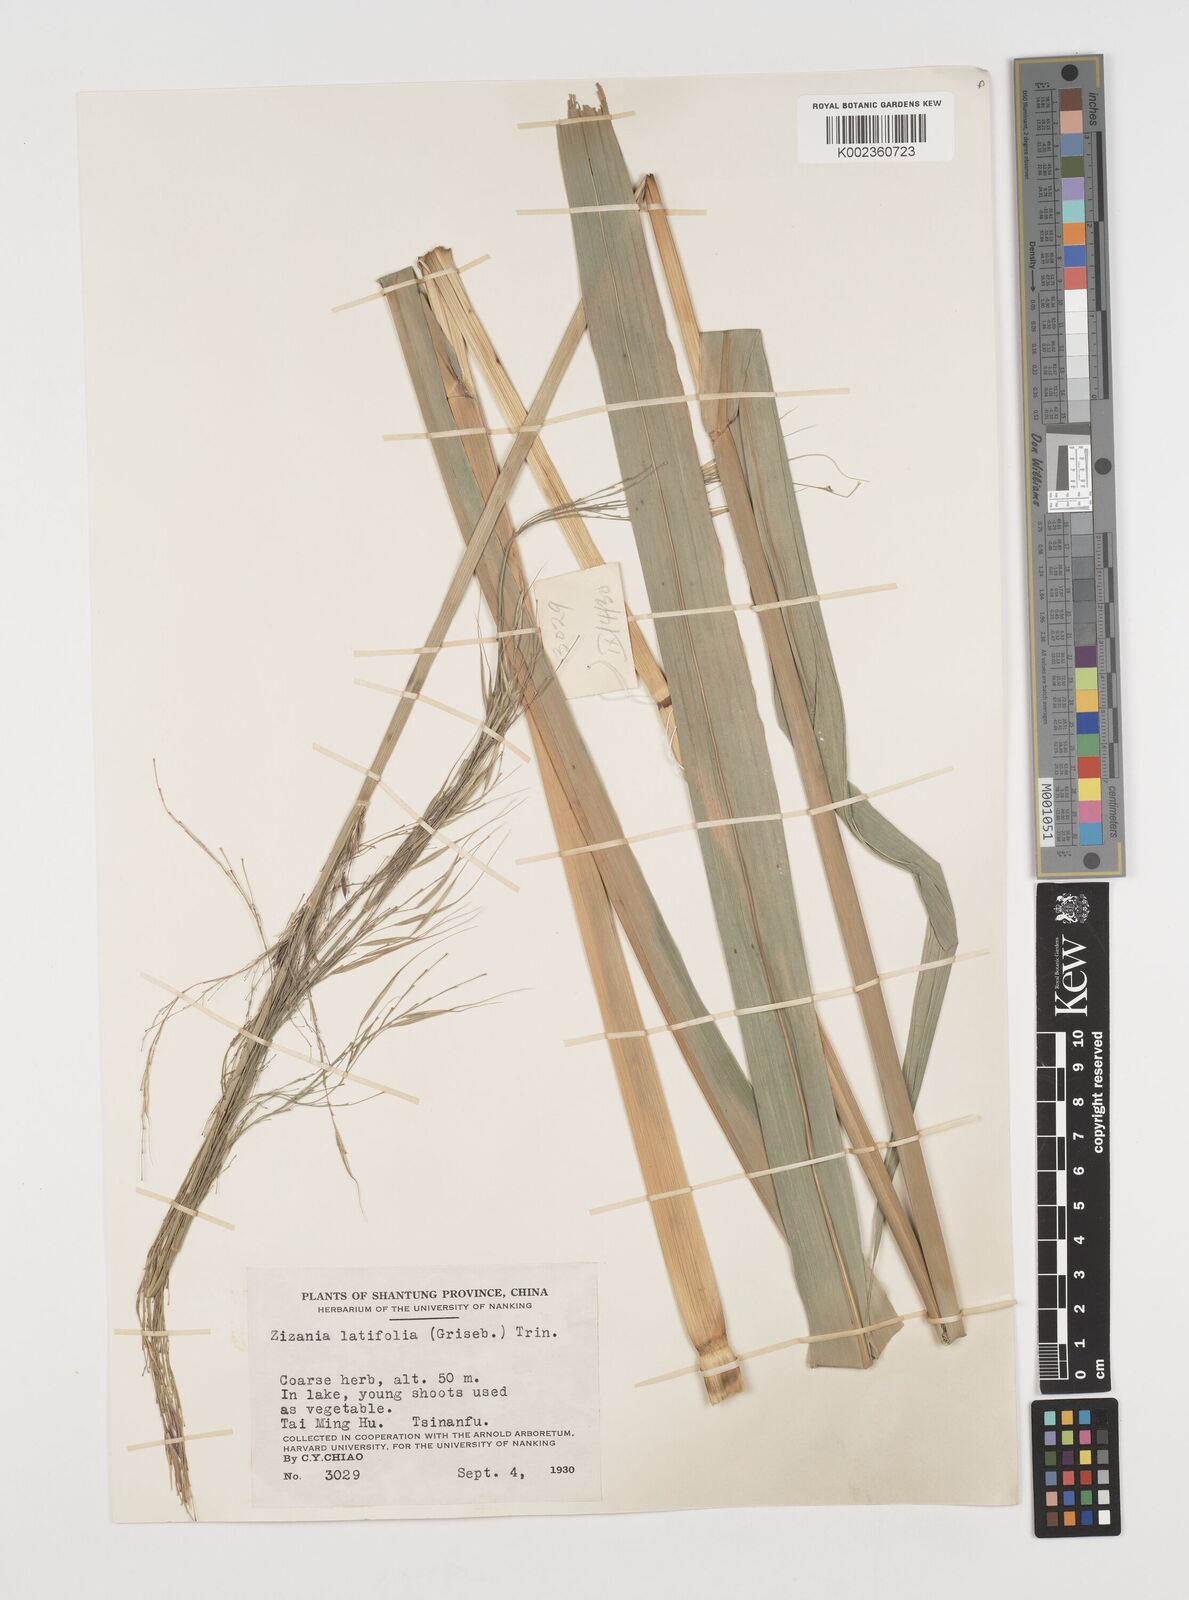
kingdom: Plantae
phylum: Tracheophyta
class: Liliopsida
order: Poales
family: Poaceae
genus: Zizania
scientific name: Zizania latifolia
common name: Manchurian wildrice
